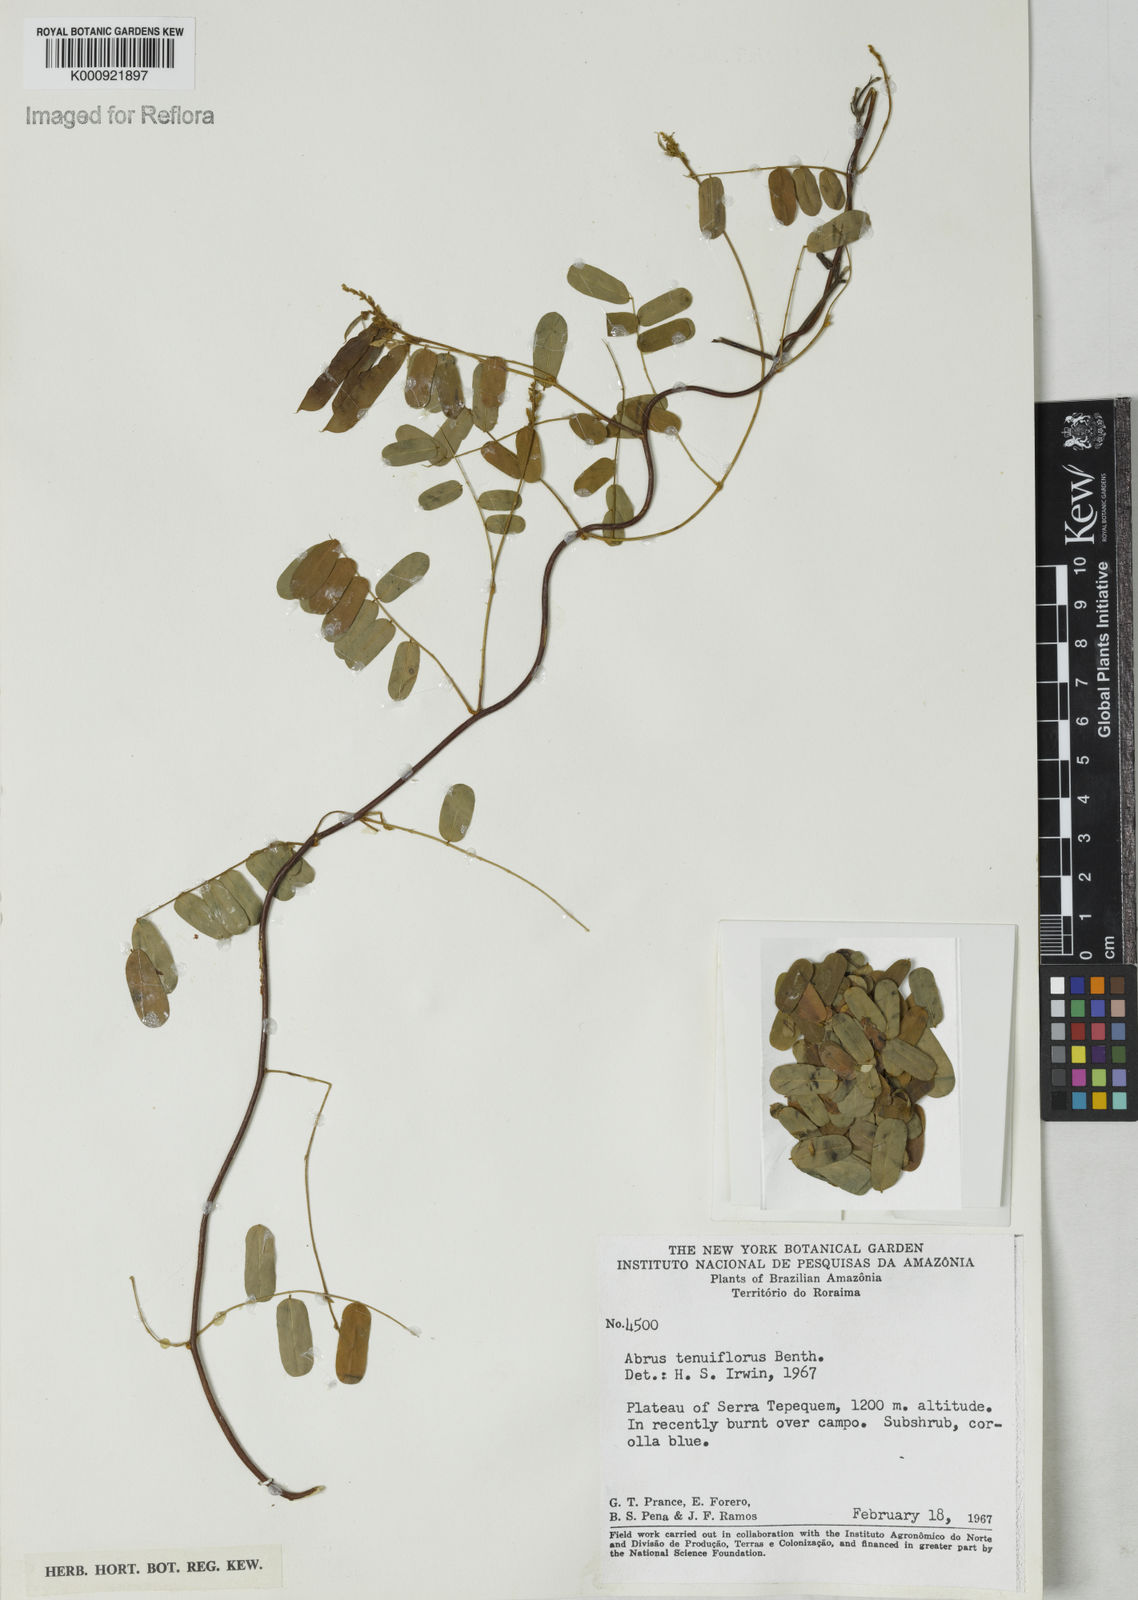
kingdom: Plantae
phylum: Tracheophyta
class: Magnoliopsida
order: Fabales
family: Fabaceae
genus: Abrus
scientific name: Abrus melanospermus
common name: Licorice-root
